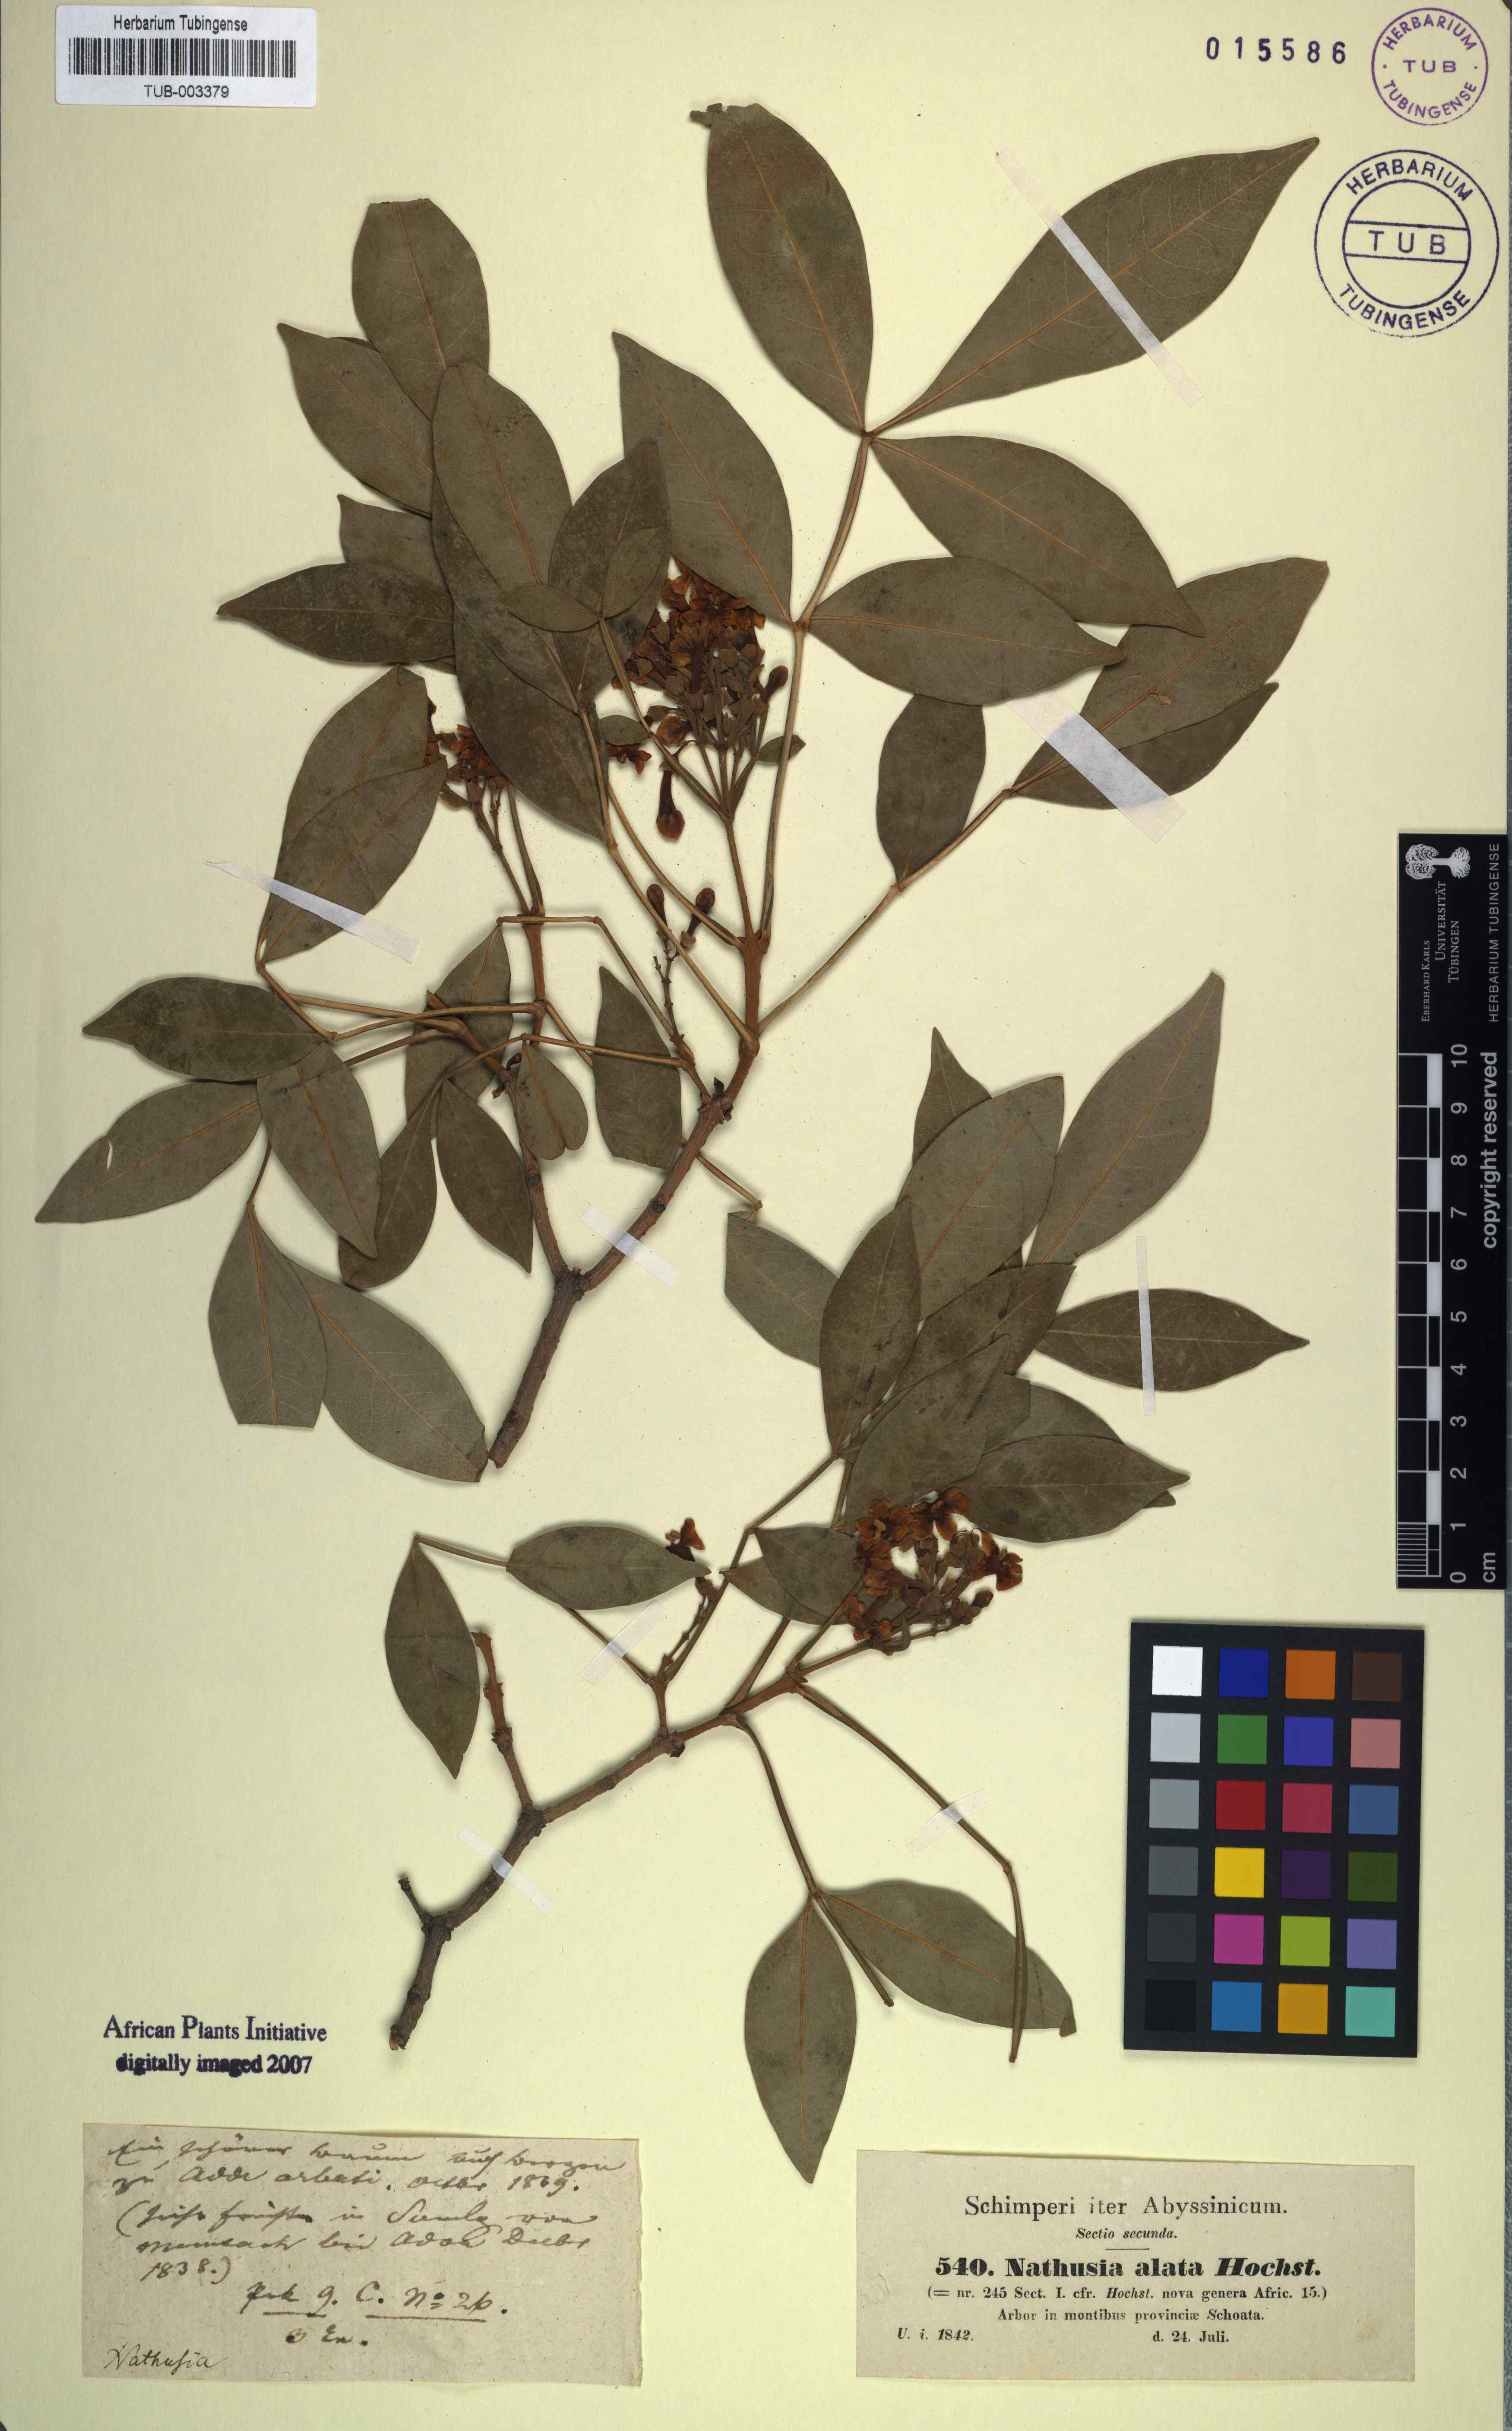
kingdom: Plantae
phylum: Tracheophyta
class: Magnoliopsida
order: Lamiales
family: Oleaceae
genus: Schrebera
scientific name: Schrebera alata
